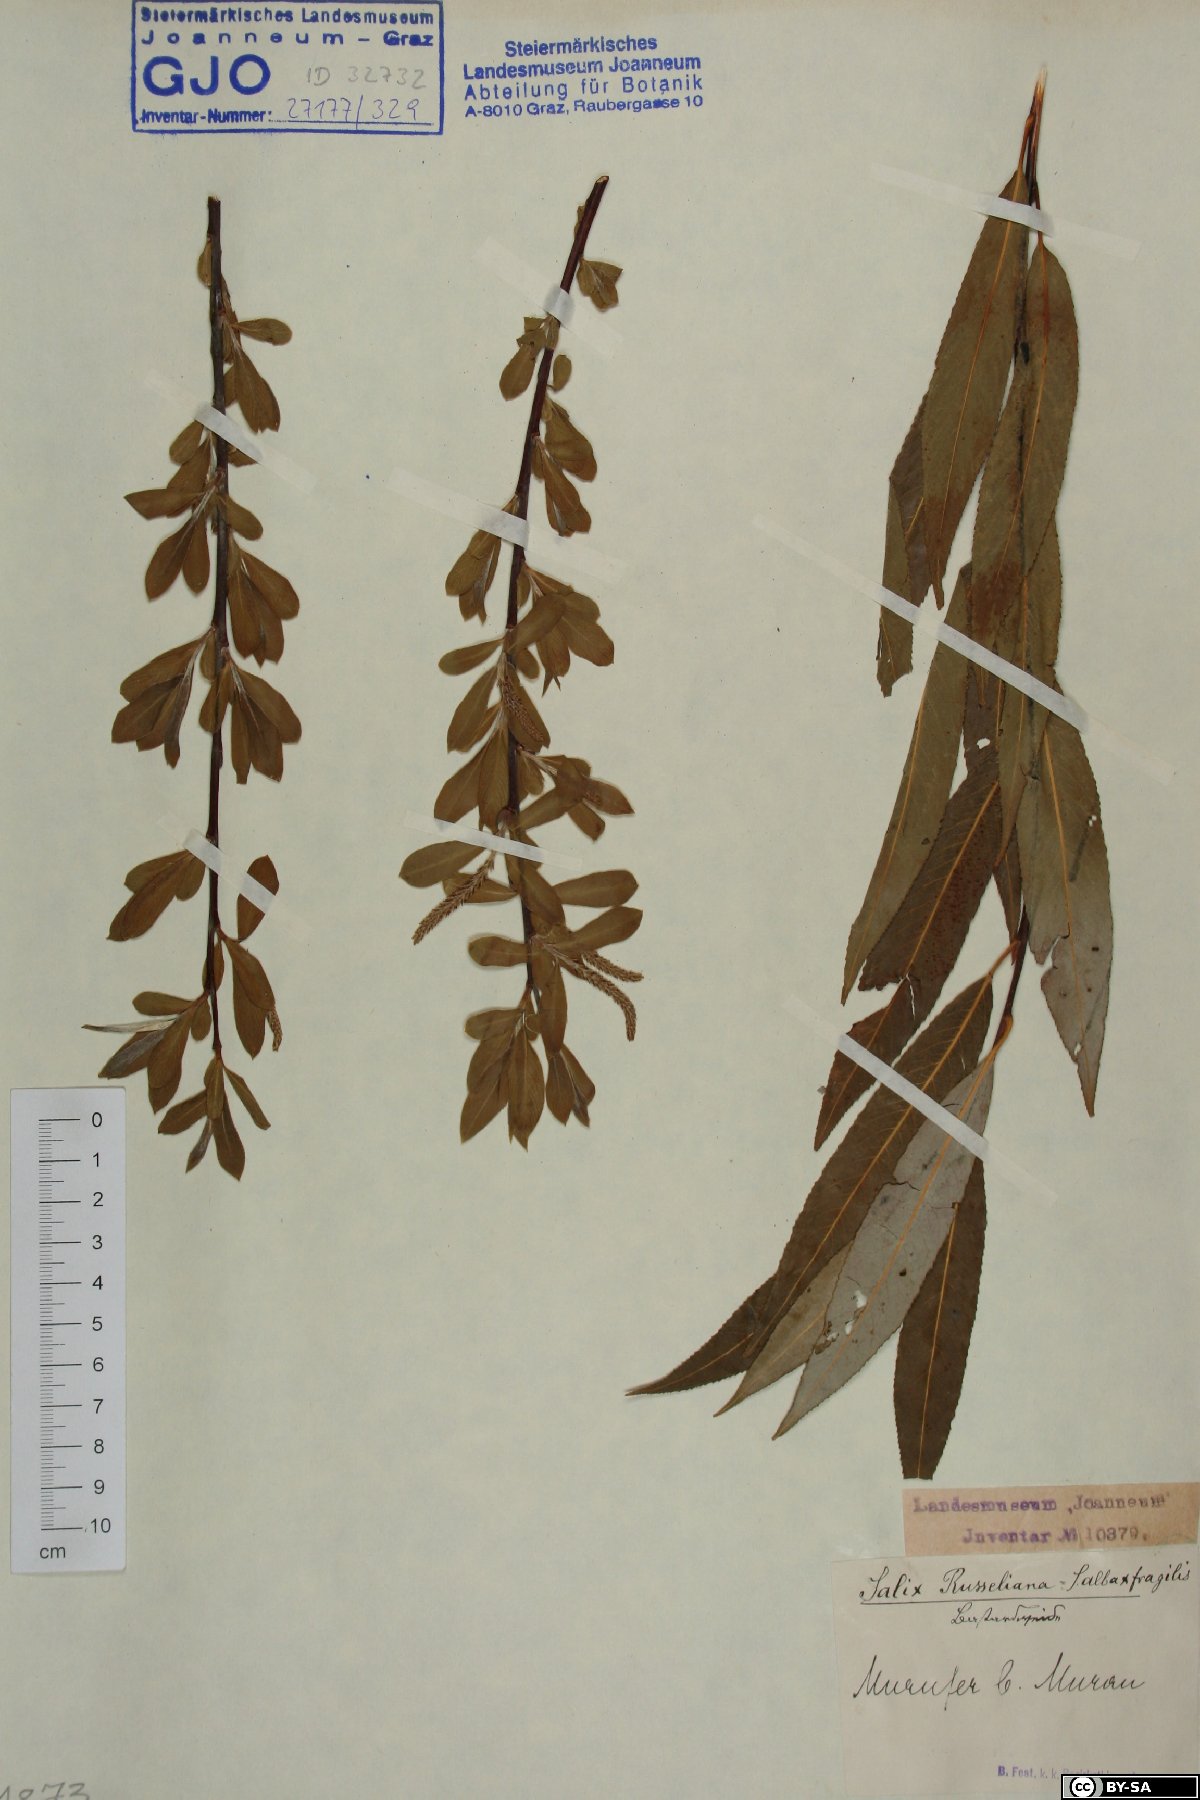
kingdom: Plantae
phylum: Tracheophyta
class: Magnoliopsida
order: Malpighiales
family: Salicaceae
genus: Salix
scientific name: Salix rubens
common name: Hybrid crack willow
